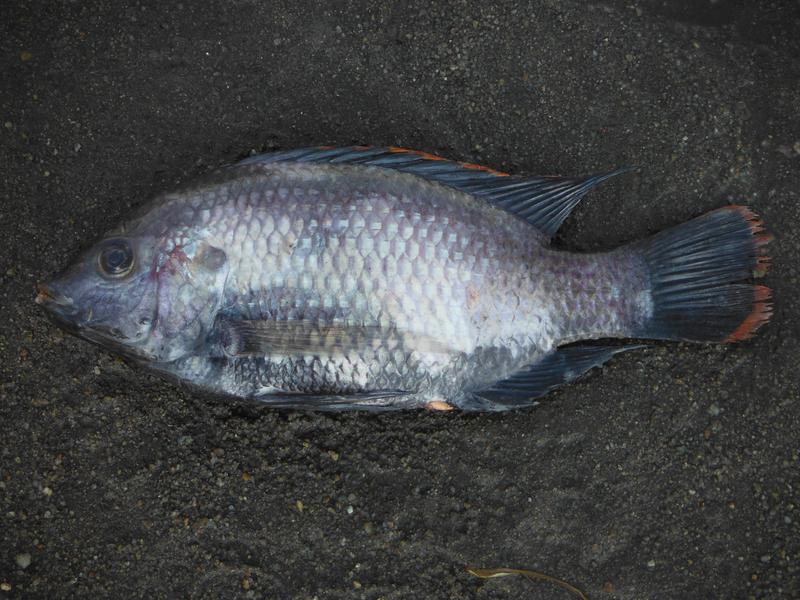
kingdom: Animalia
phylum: Chordata
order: Perciformes
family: Cichlidae
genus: Oreochromis
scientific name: Oreochromis rukwaensis
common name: Lake rukwa tilapia
